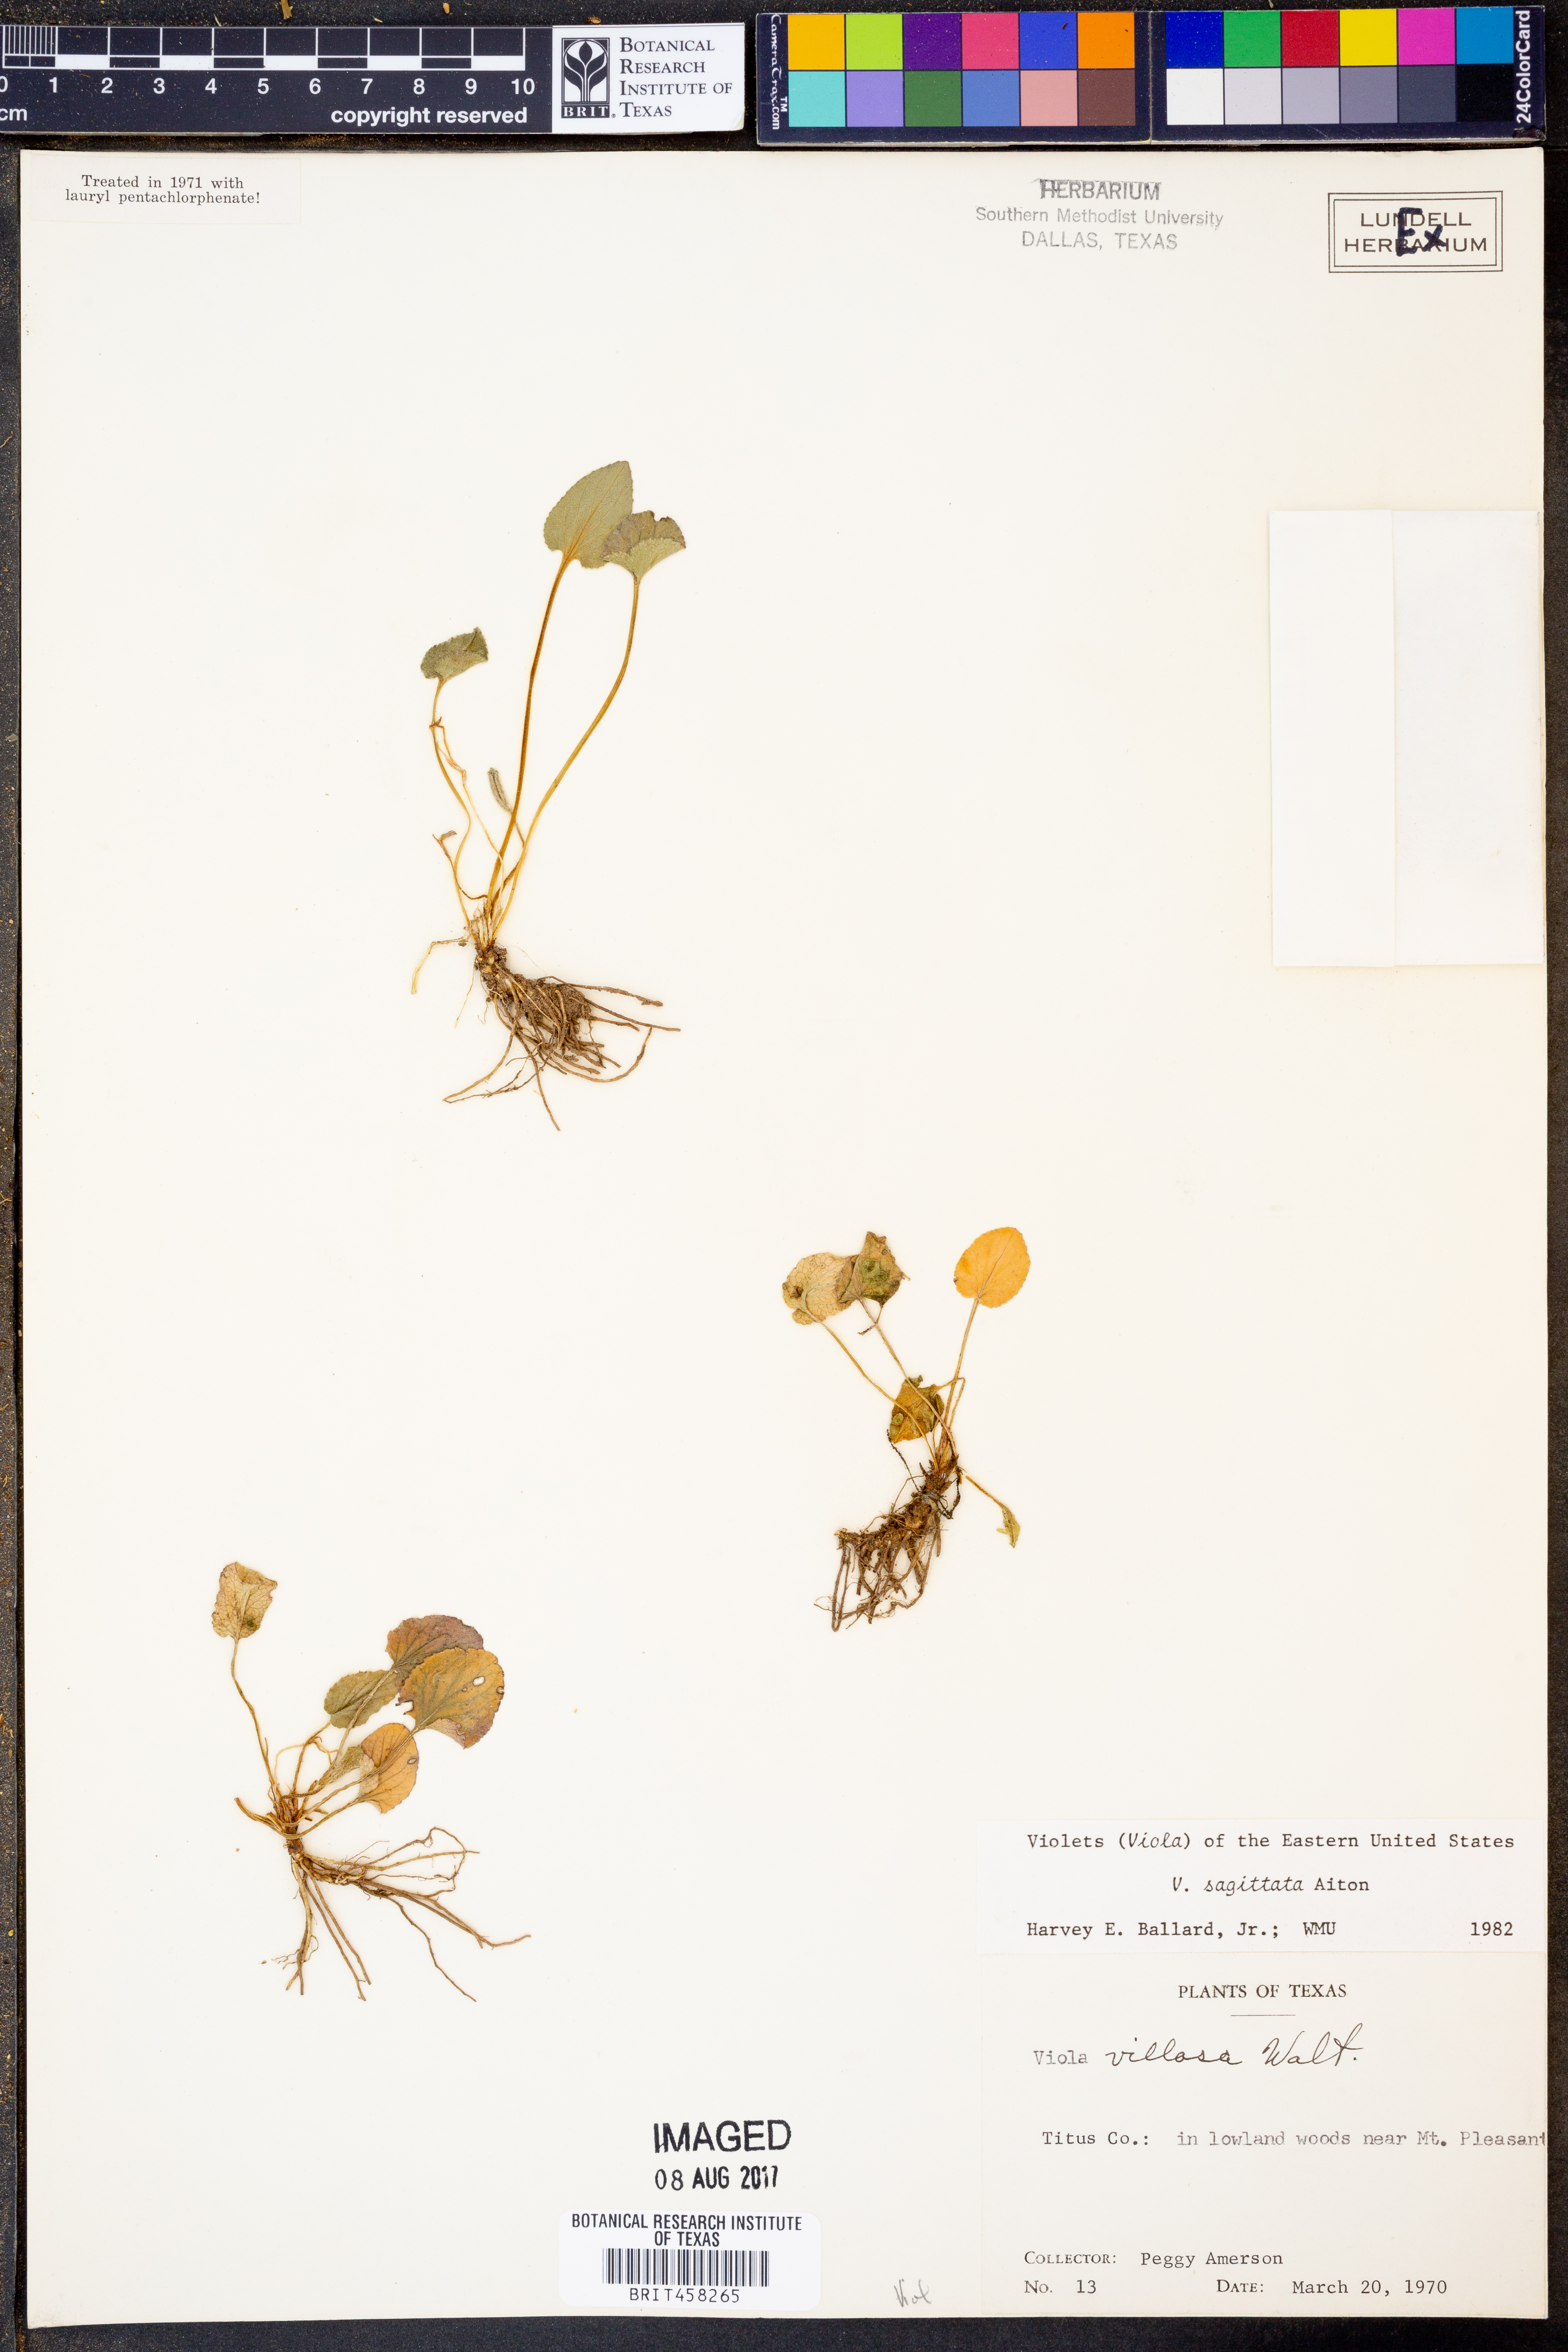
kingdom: Plantae
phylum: Tracheophyta
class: Magnoliopsida
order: Malpighiales
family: Violaceae
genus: Viola
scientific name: Viola sagittata
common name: Arrowhead violet
